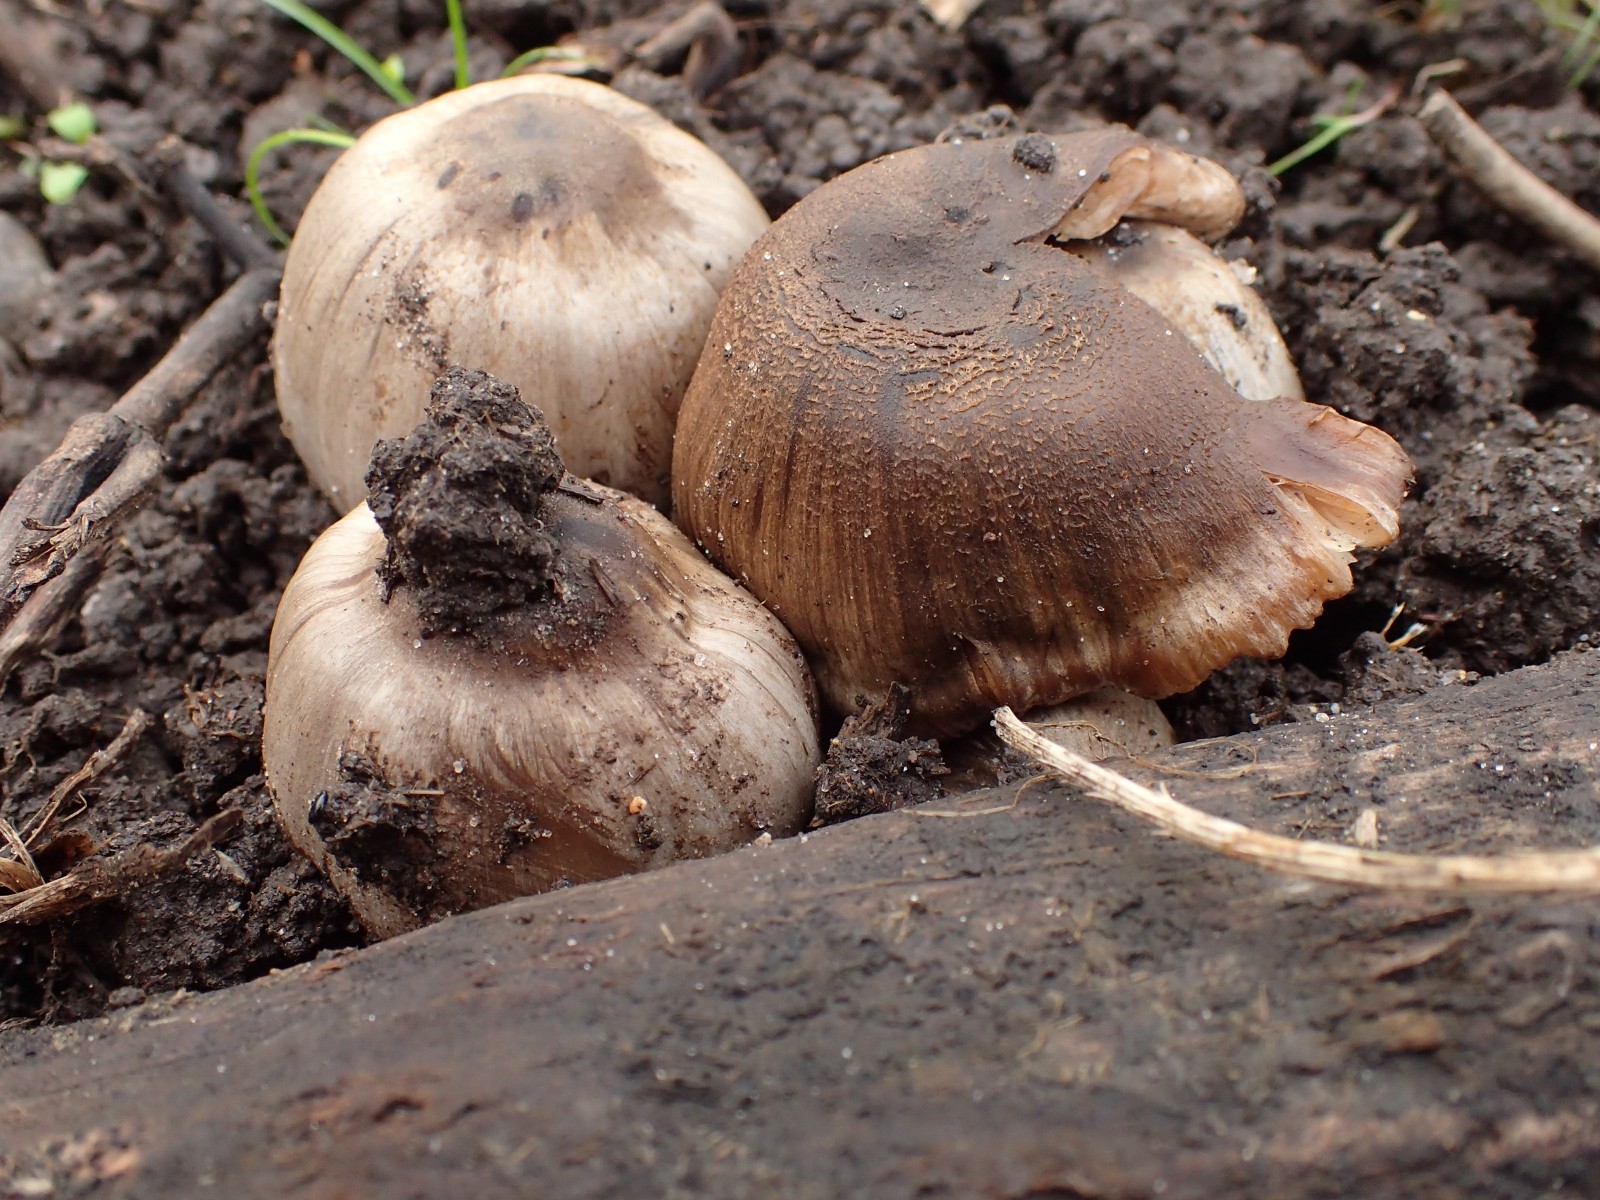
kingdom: Fungi
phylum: Basidiomycota
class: Agaricomycetes
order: Agaricales
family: Psathyrellaceae
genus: Coprinopsis
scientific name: Coprinopsis atramentaria
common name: almindelig blækhat
